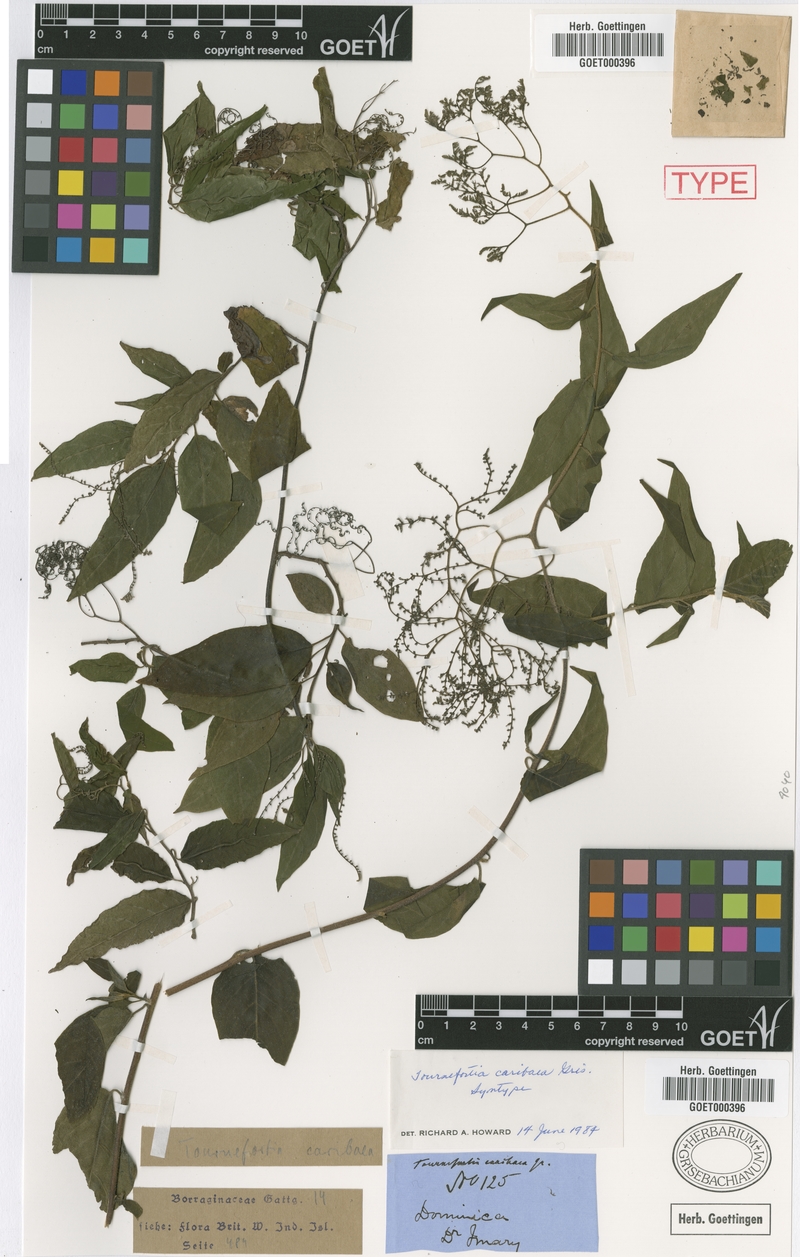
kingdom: Plantae
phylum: Tracheophyta
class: Magnoliopsida
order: Boraginales
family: Heliotropiaceae
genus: Heliotropium
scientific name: Heliotropium caribaeum
